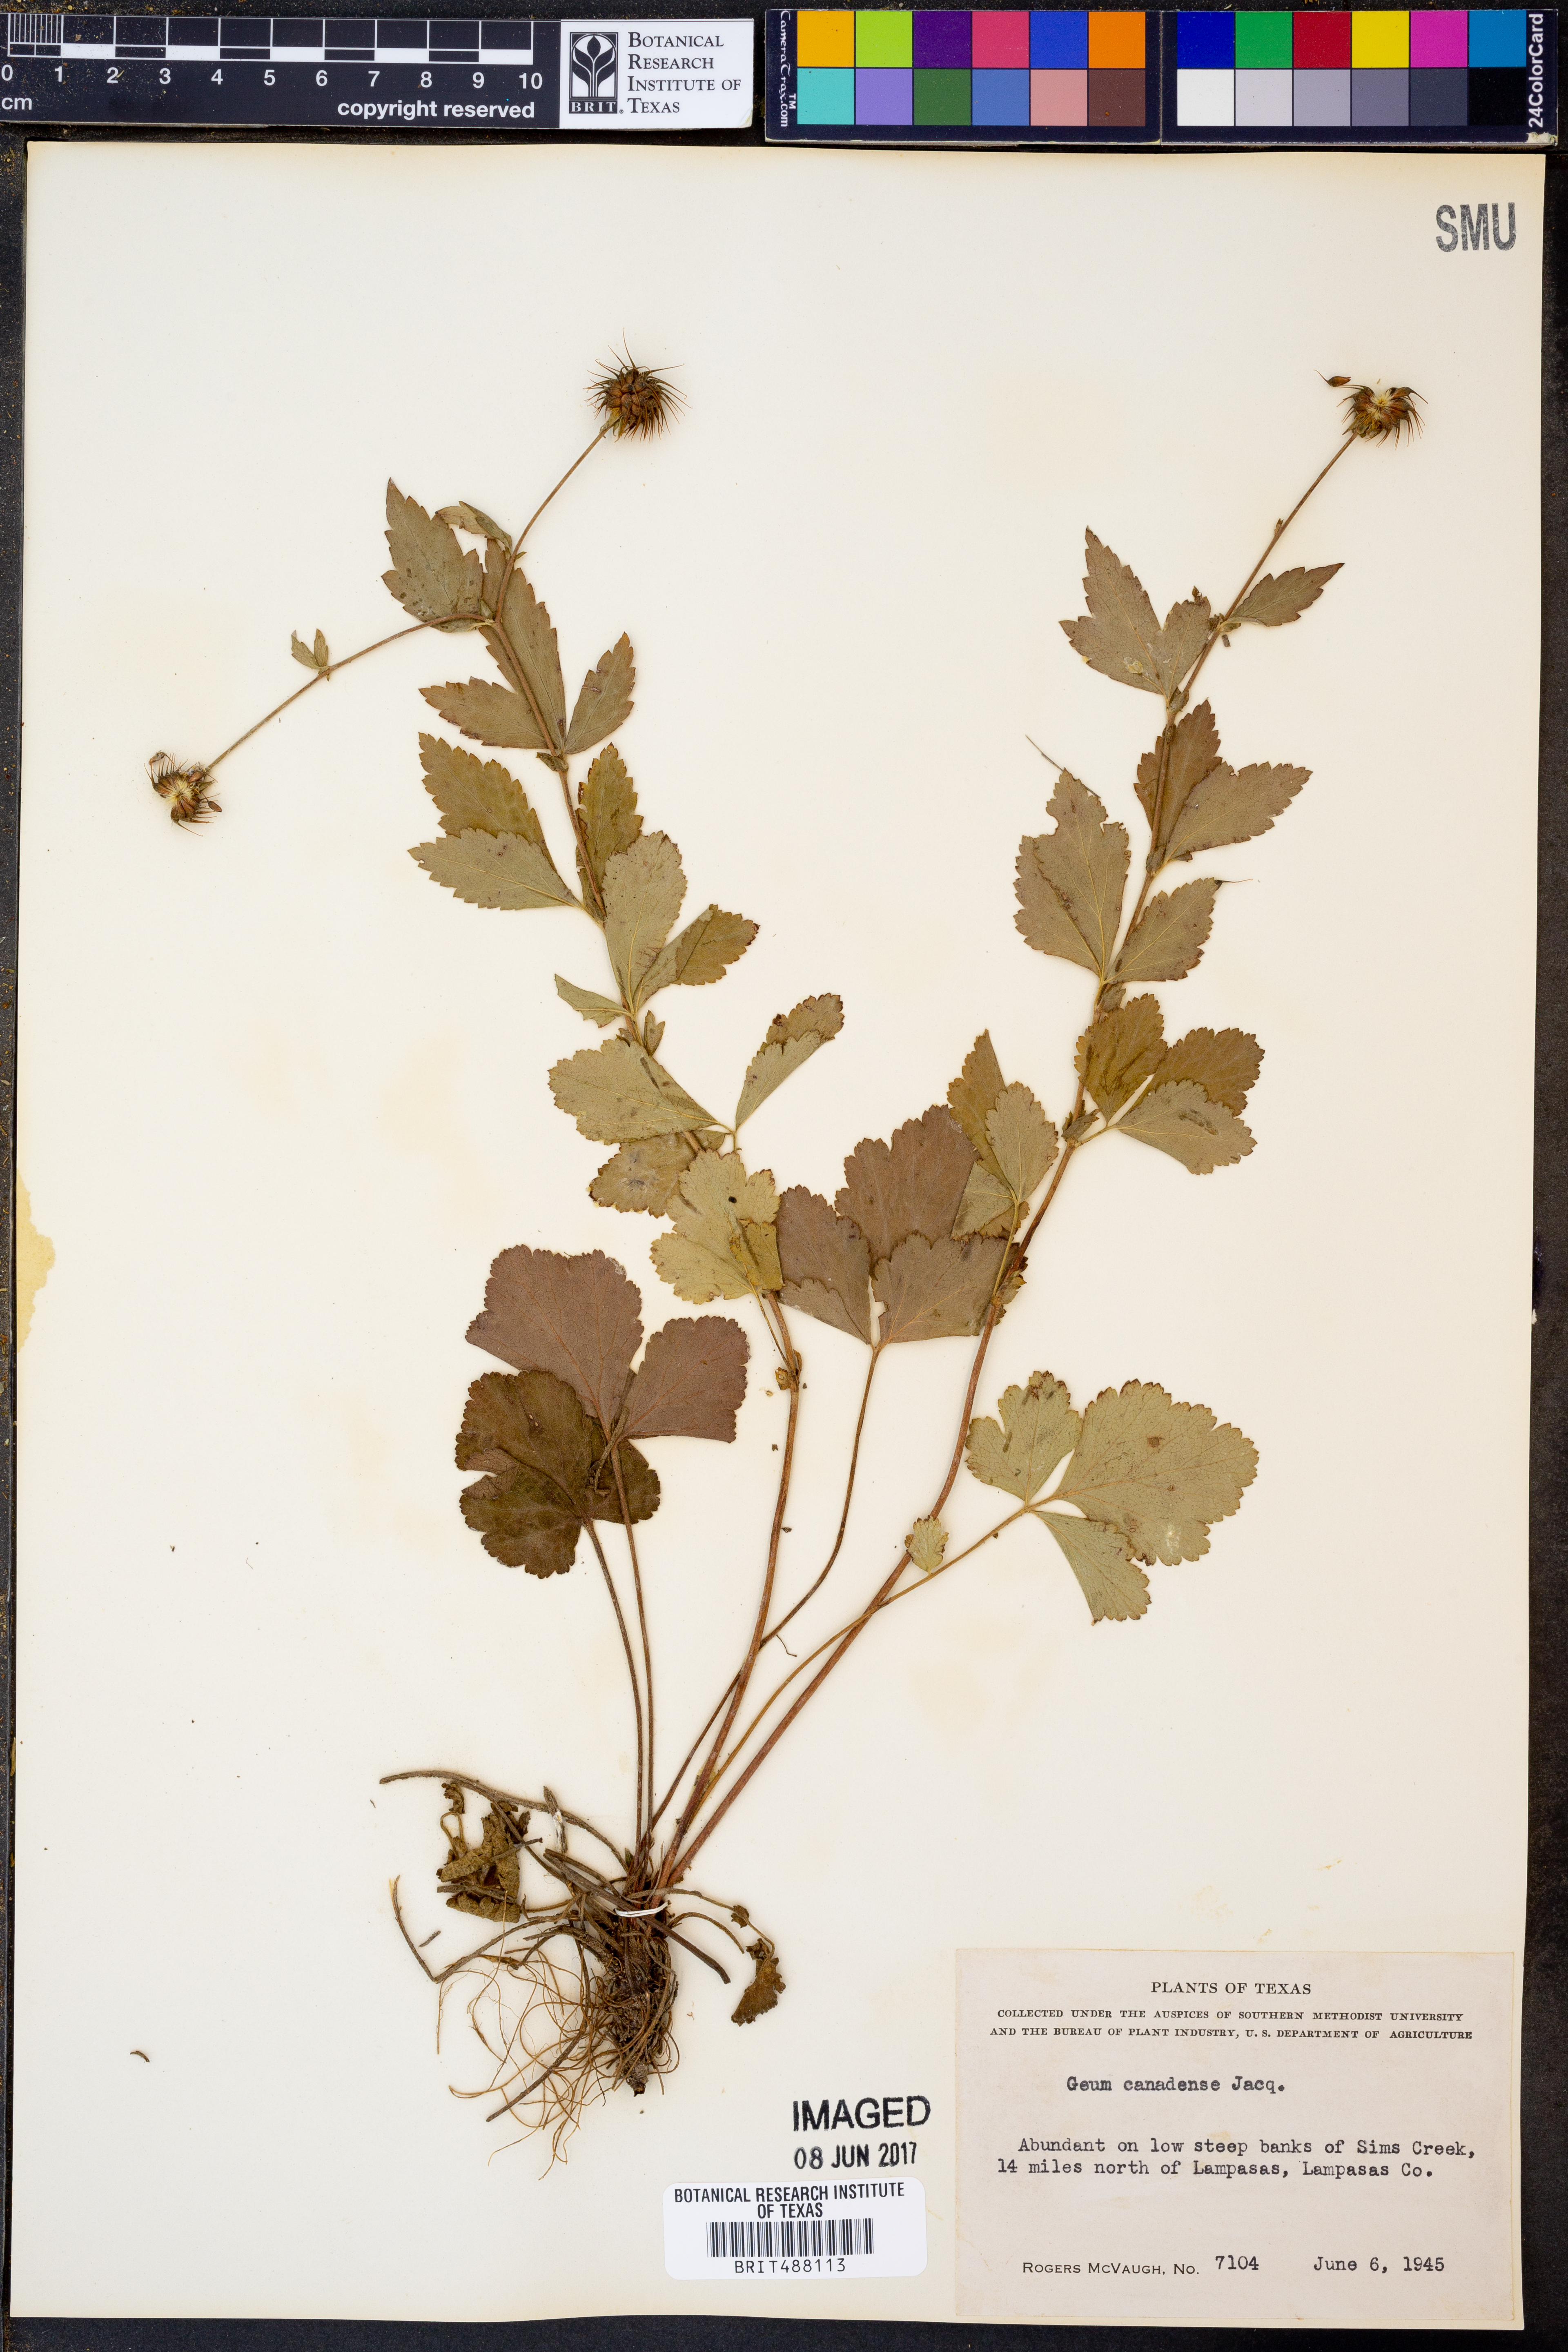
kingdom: Plantae
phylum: Tracheophyta
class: Magnoliopsida
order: Rosales
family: Rosaceae
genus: Geum
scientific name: Geum canadense
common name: White avens
